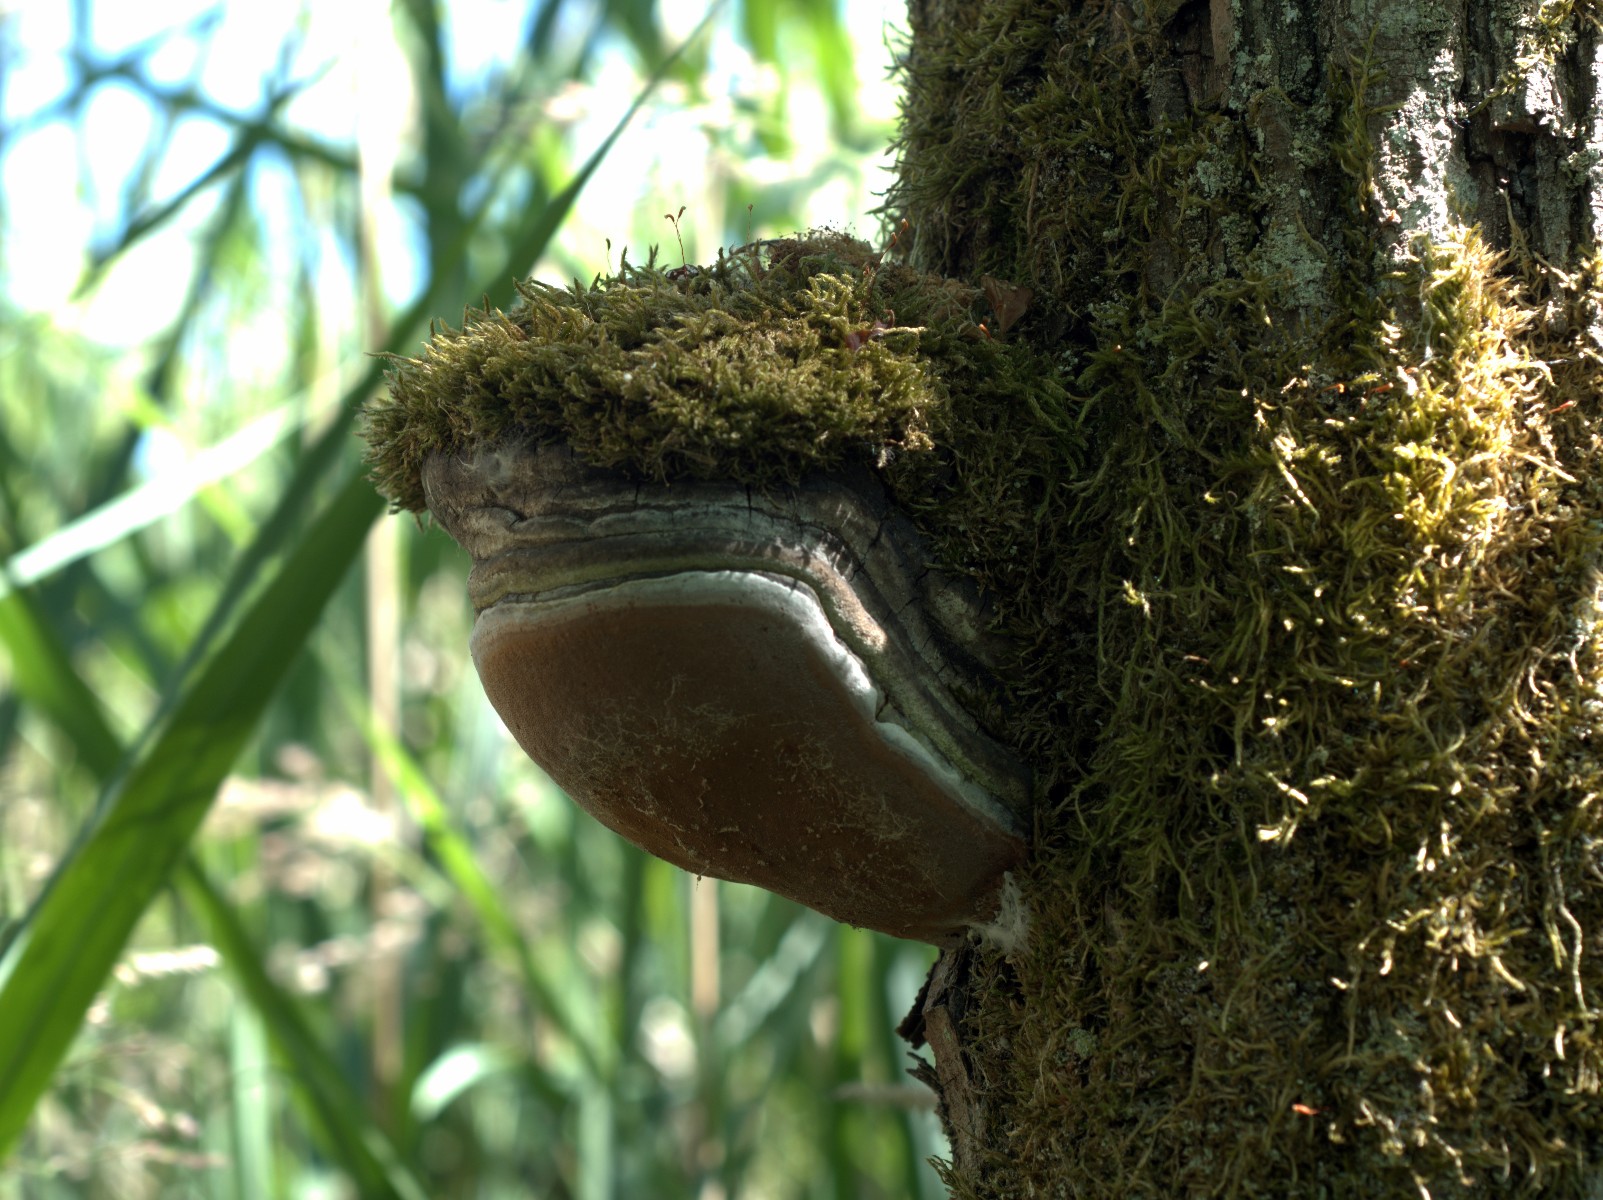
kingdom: Fungi
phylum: Basidiomycota
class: Agaricomycetes
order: Hymenochaetales
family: Hymenochaetaceae
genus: Phellinus
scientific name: Phellinus igniarius
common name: almindelig ildporesvamp
